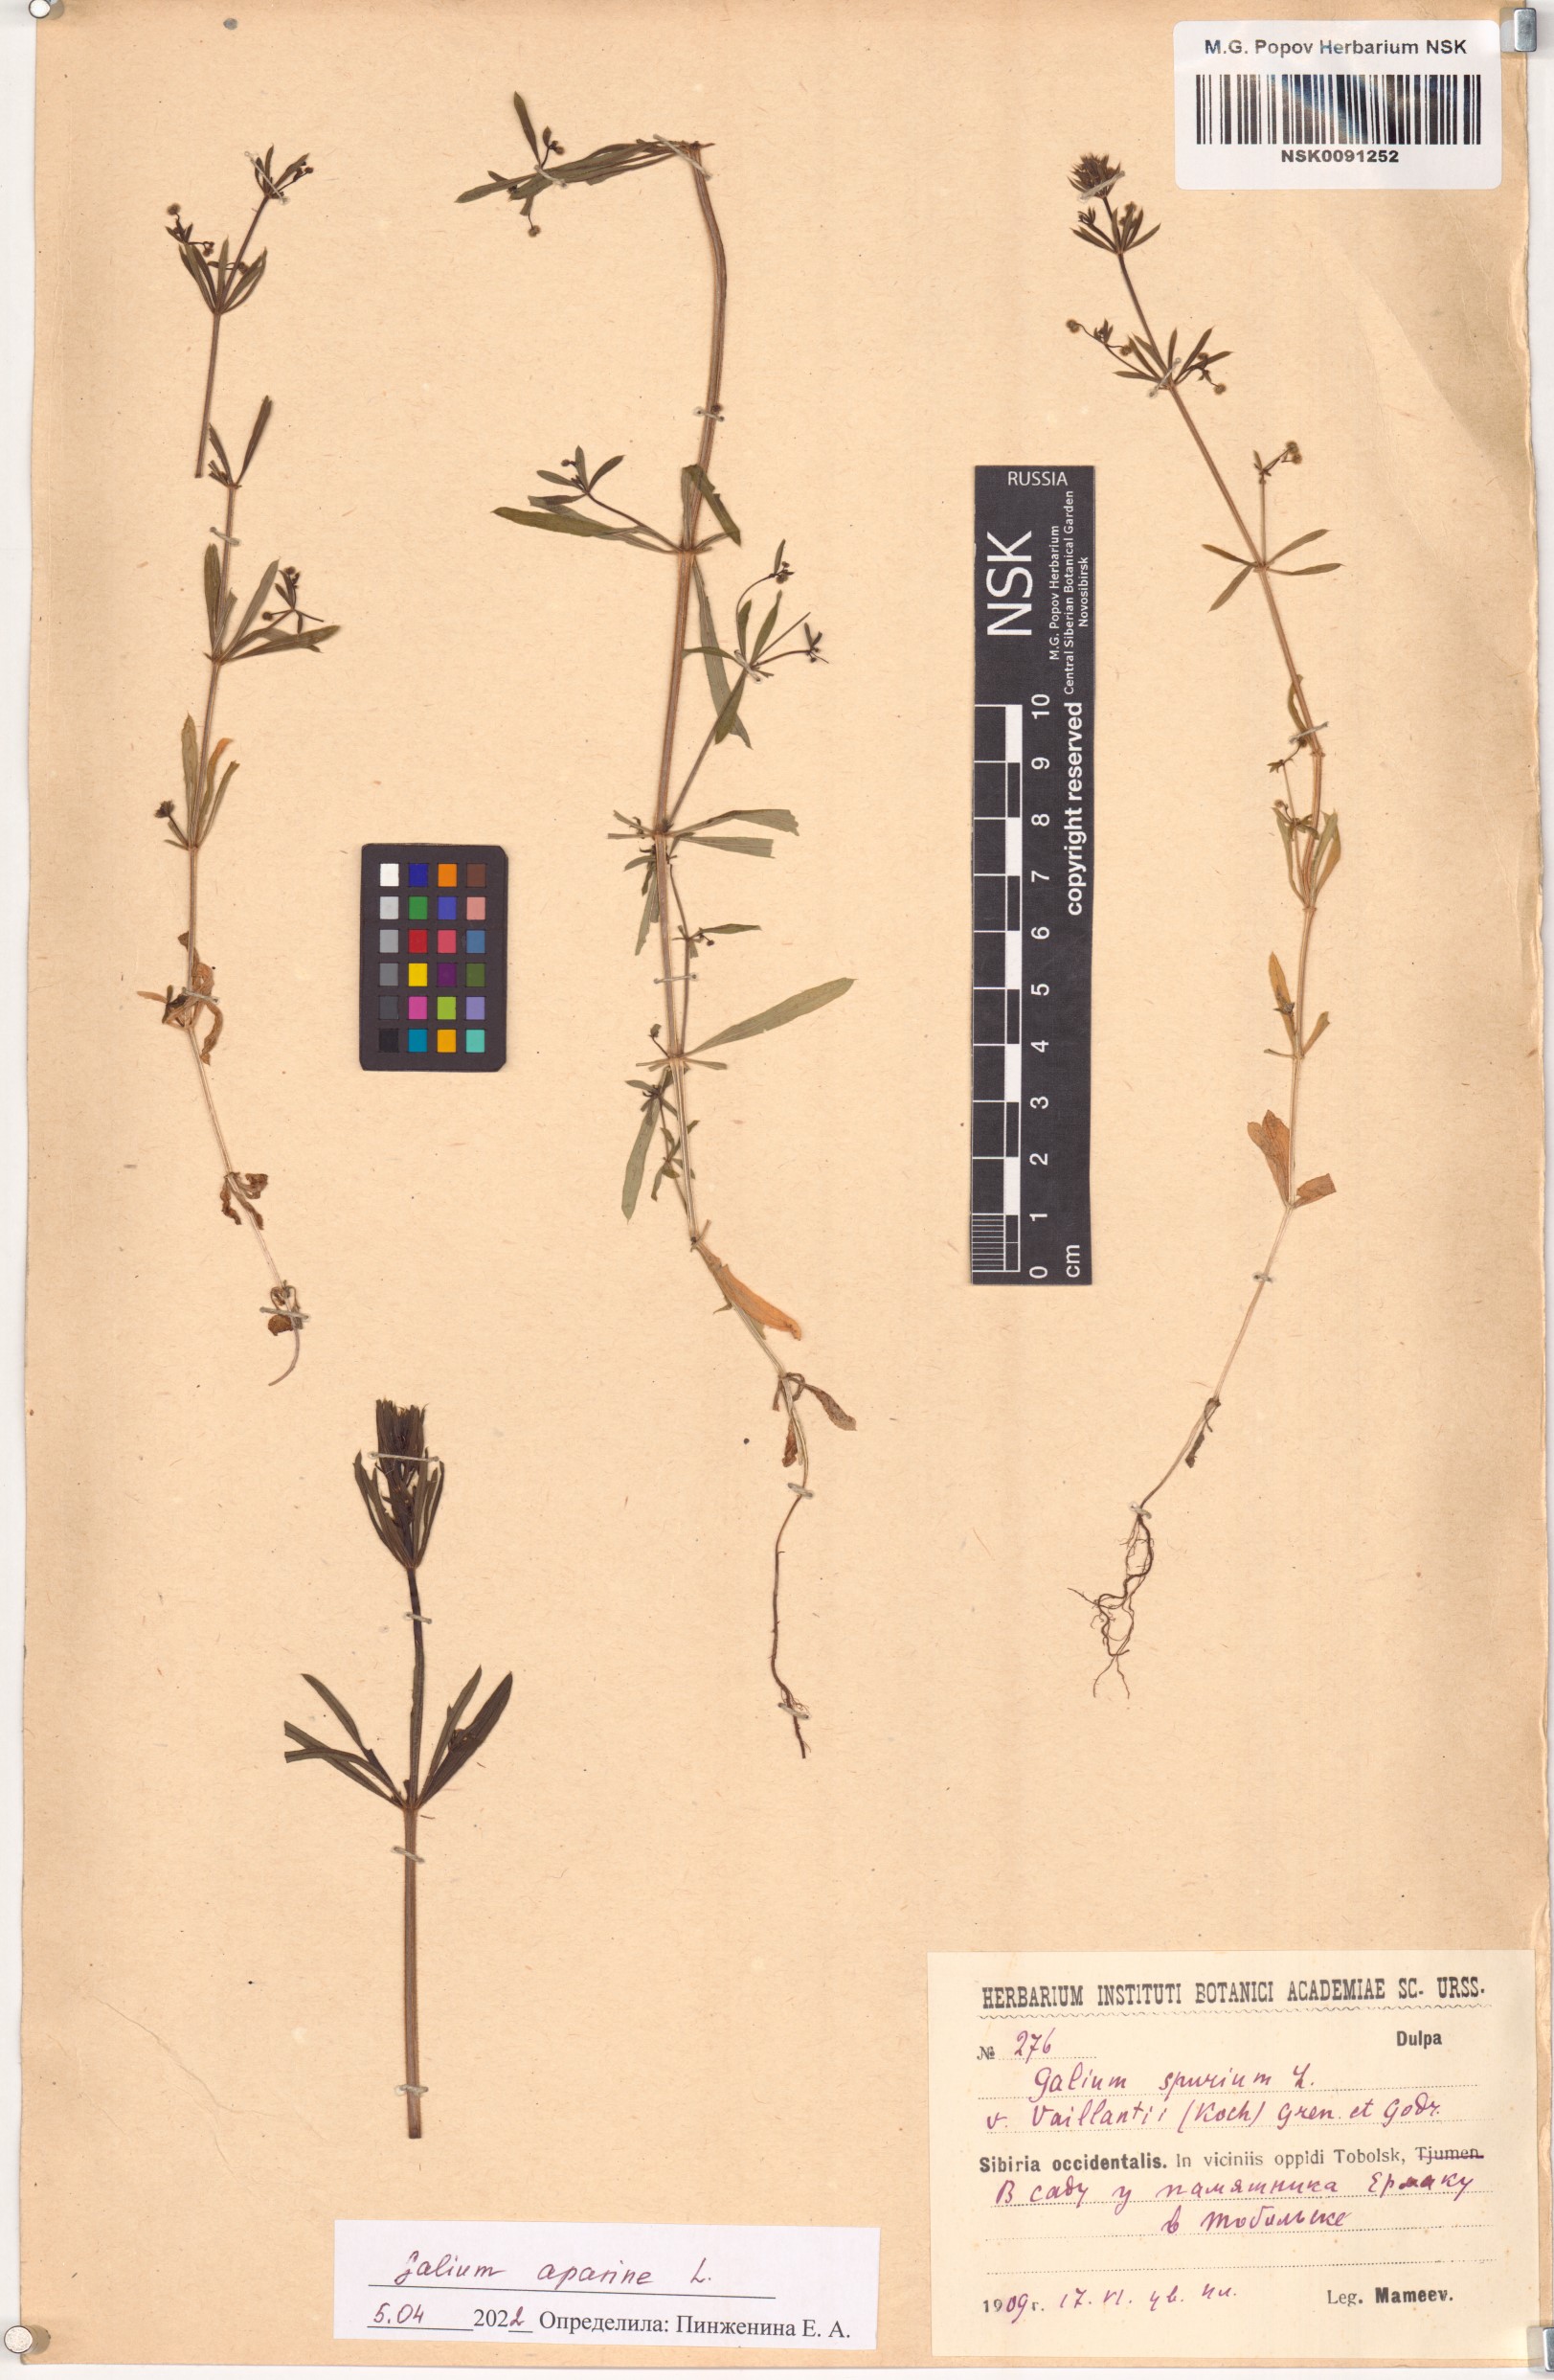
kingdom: Plantae
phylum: Tracheophyta
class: Magnoliopsida
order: Gentianales
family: Rubiaceae
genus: Galium
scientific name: Galium aparine
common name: Cleavers
